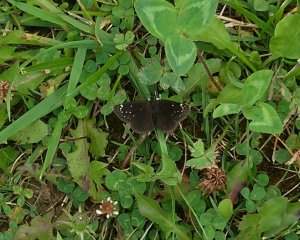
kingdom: Animalia
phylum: Arthropoda
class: Insecta
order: Lepidoptera
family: Hesperiidae
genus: Pholisora
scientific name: Pholisora catullus
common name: Common Sootywing
